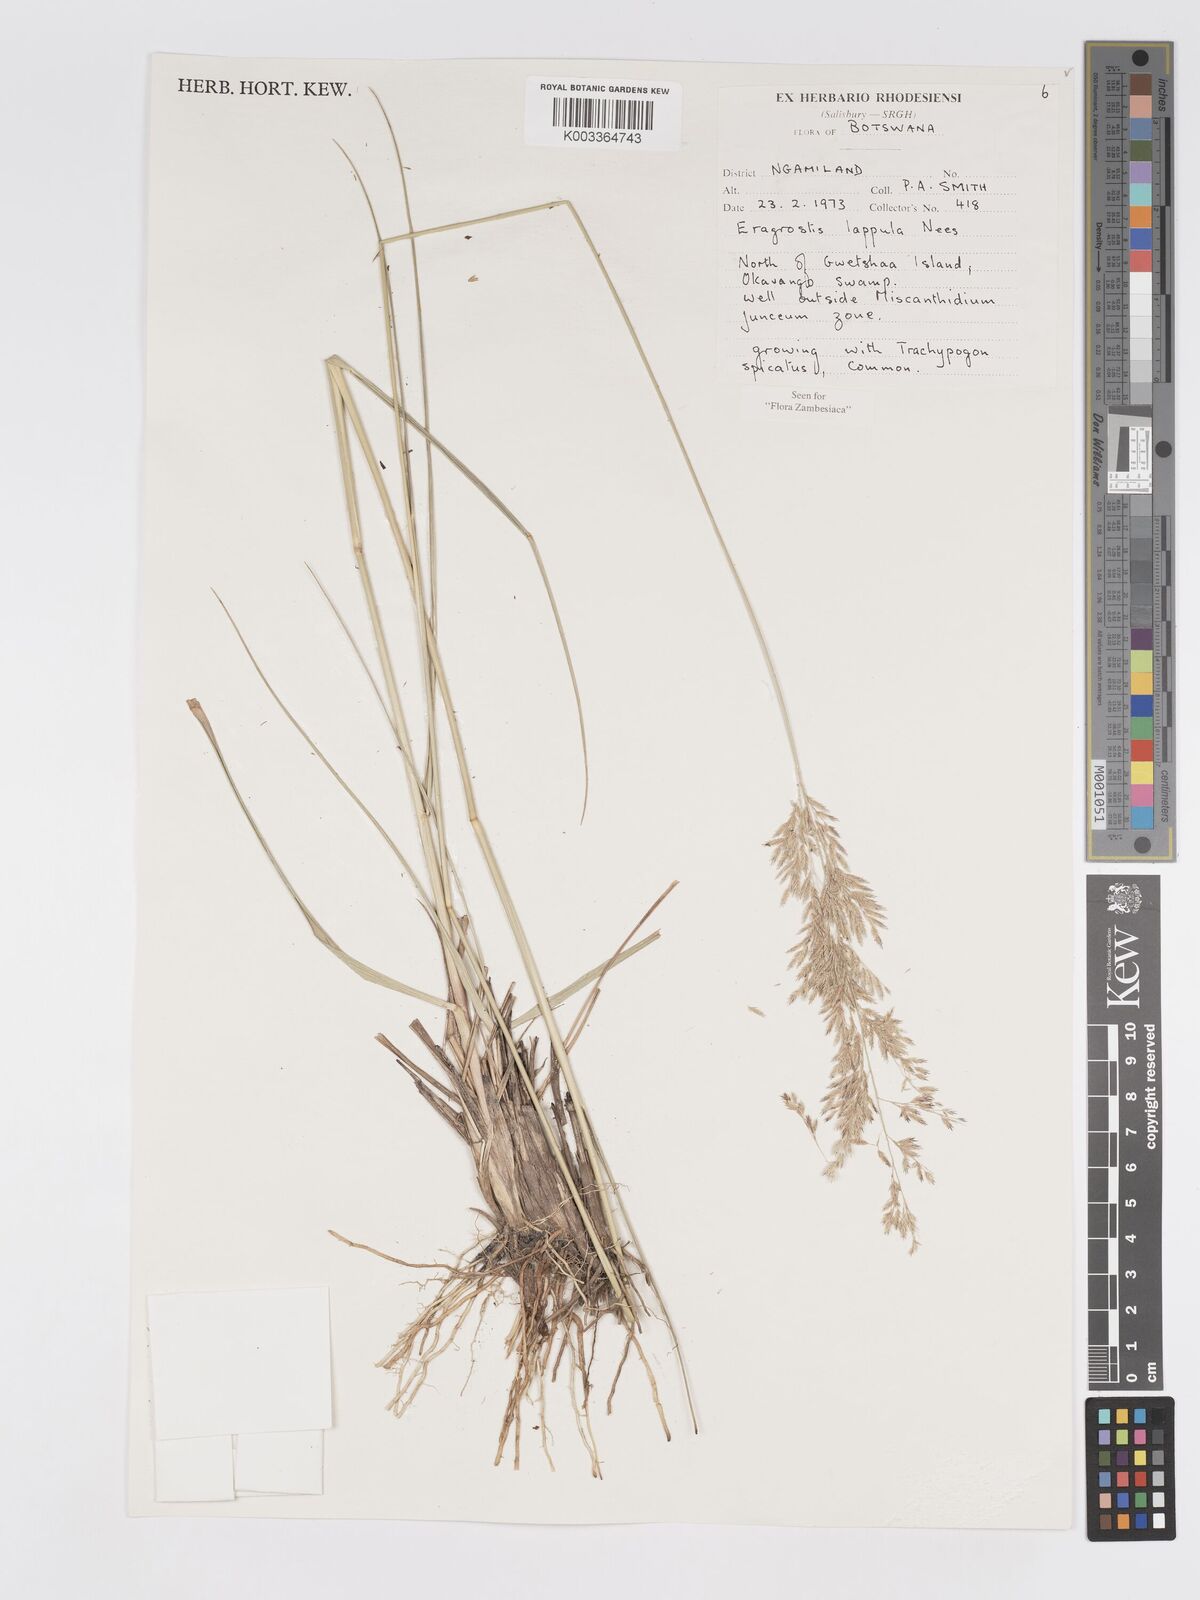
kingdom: Plantae
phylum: Tracheophyta
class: Liliopsida
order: Poales
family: Poaceae
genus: Eragrostis
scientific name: Eragrostis lappula
